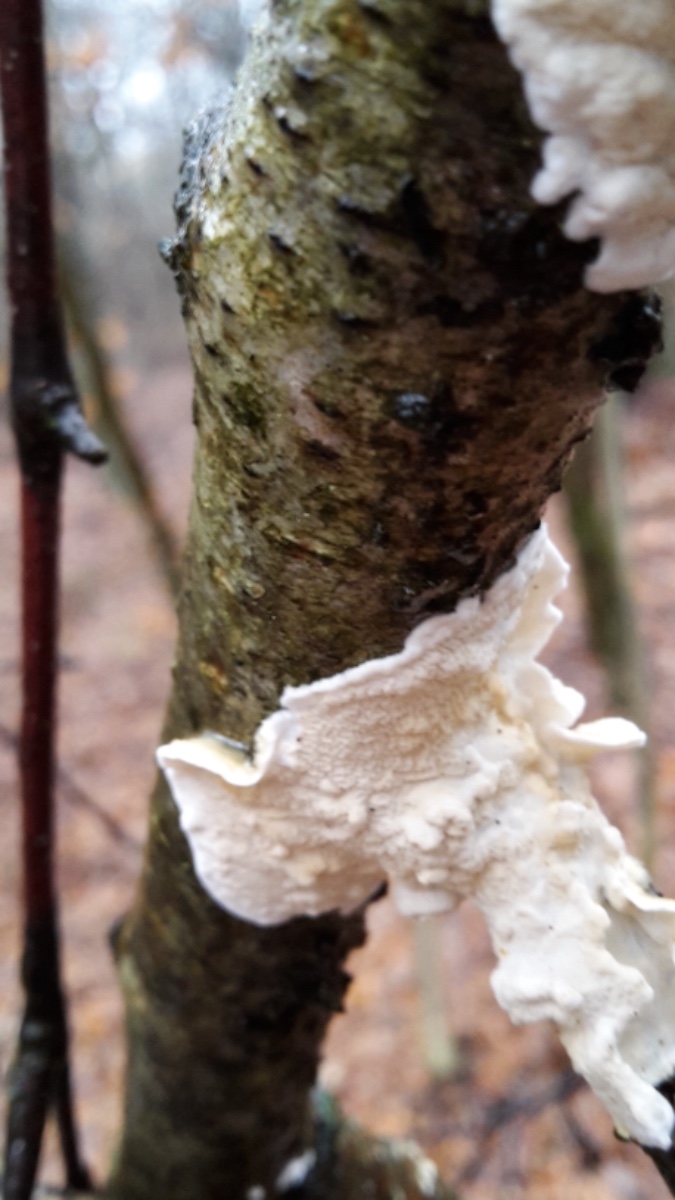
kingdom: Fungi
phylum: Basidiomycota
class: Agaricomycetes
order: Polyporales
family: Irpicaceae
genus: Byssomerulius
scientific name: Byssomerulius corium
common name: læder-åresvamp
